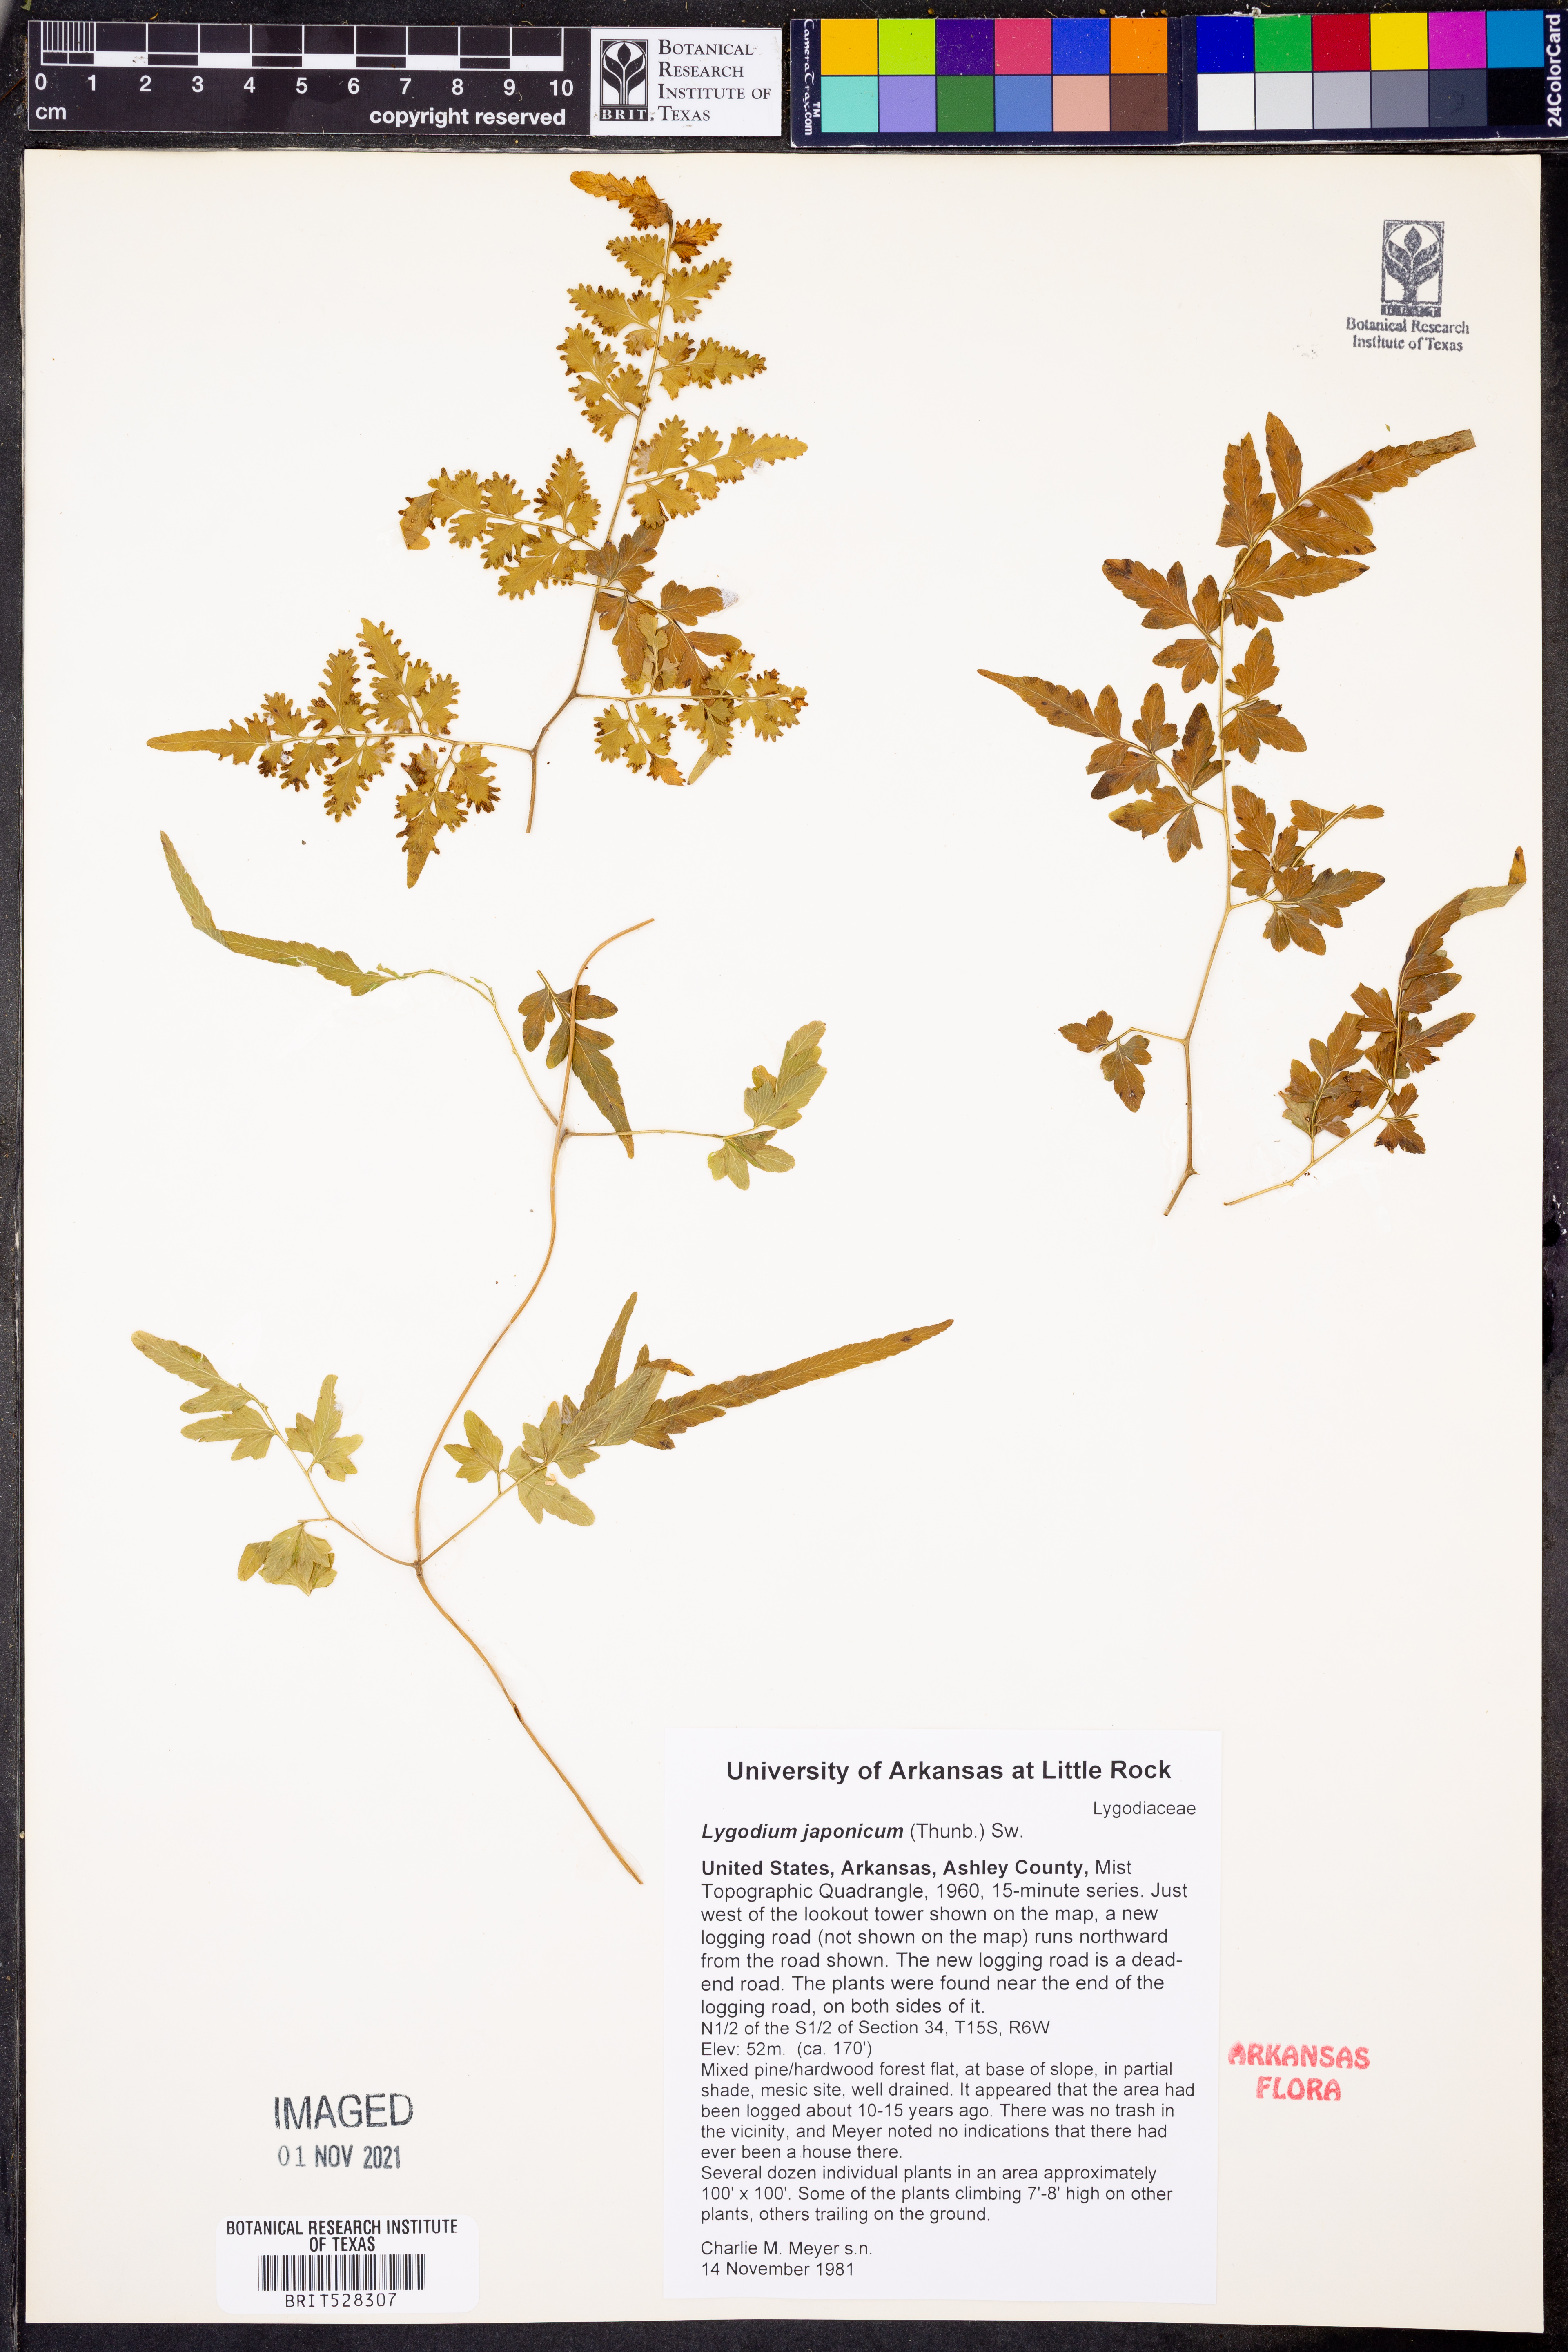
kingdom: Plantae
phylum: Tracheophyta
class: Polypodiopsida
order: Schizaeales
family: Lygodiaceae
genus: Lygodium
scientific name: Lygodium japonicum
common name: Japanese climbing fern
